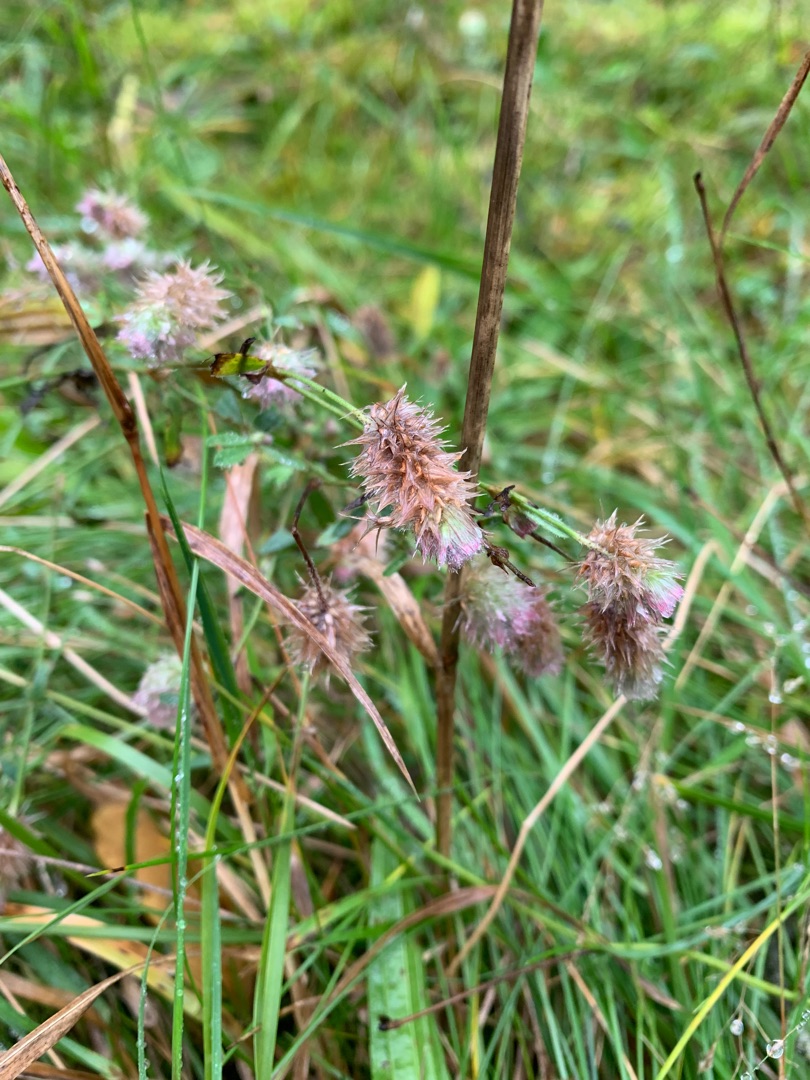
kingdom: Plantae
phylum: Tracheophyta
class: Magnoliopsida
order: Fabales
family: Fabaceae
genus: Trifolium
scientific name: Trifolium arvense
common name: Hare-kløver
